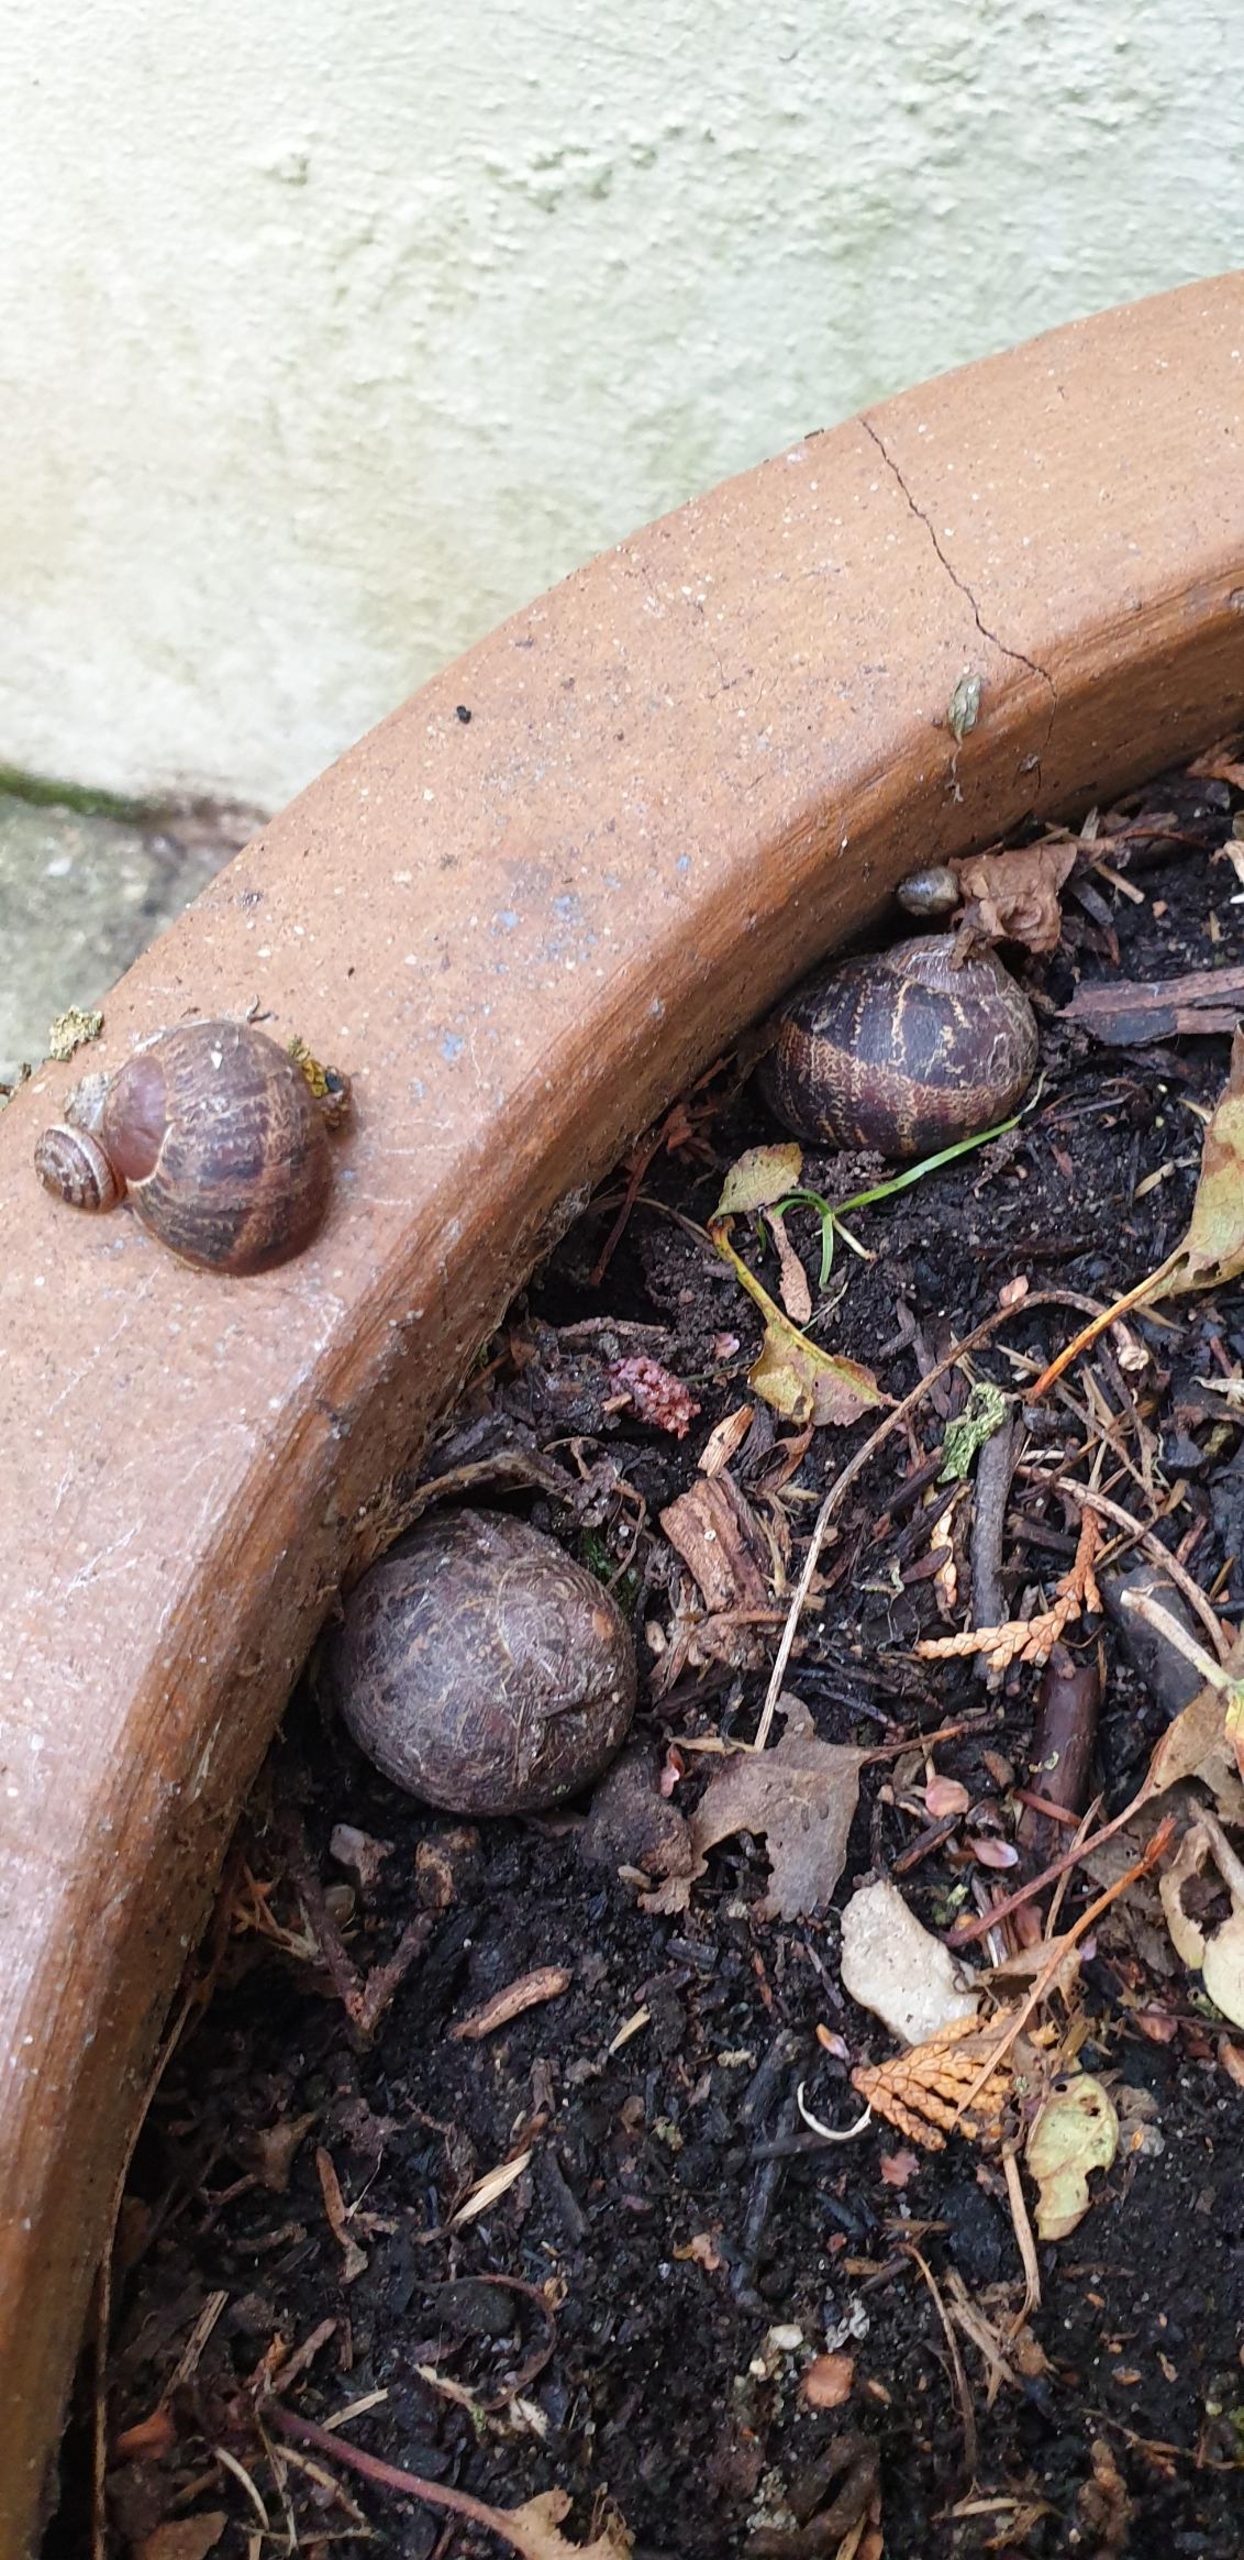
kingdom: Animalia
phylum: Mollusca
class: Gastropoda
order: Stylommatophora
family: Helicidae
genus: Cornu
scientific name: Cornu aspersum
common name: Plettet voldsnegl
